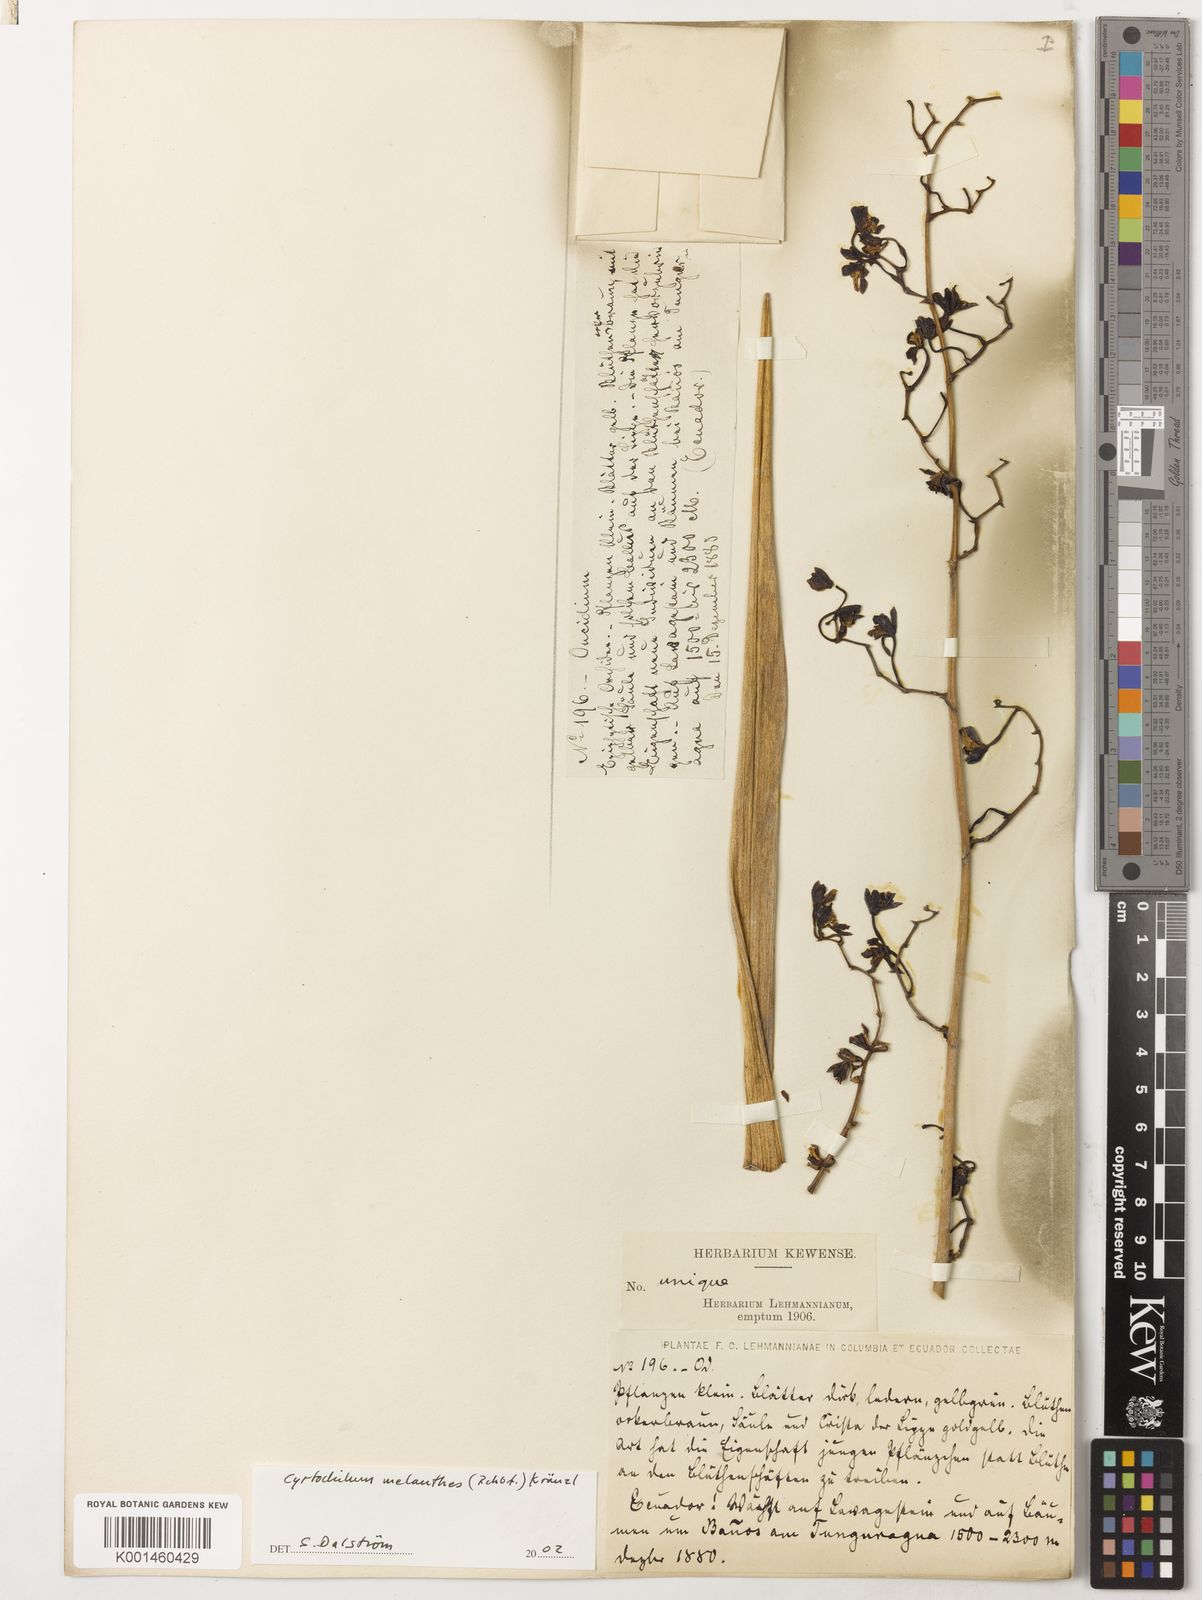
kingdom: Plantae
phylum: Tracheophyta
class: Liliopsida
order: Asparagales
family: Orchidaceae
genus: Cyrtochilum
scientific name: Cyrtochilum
